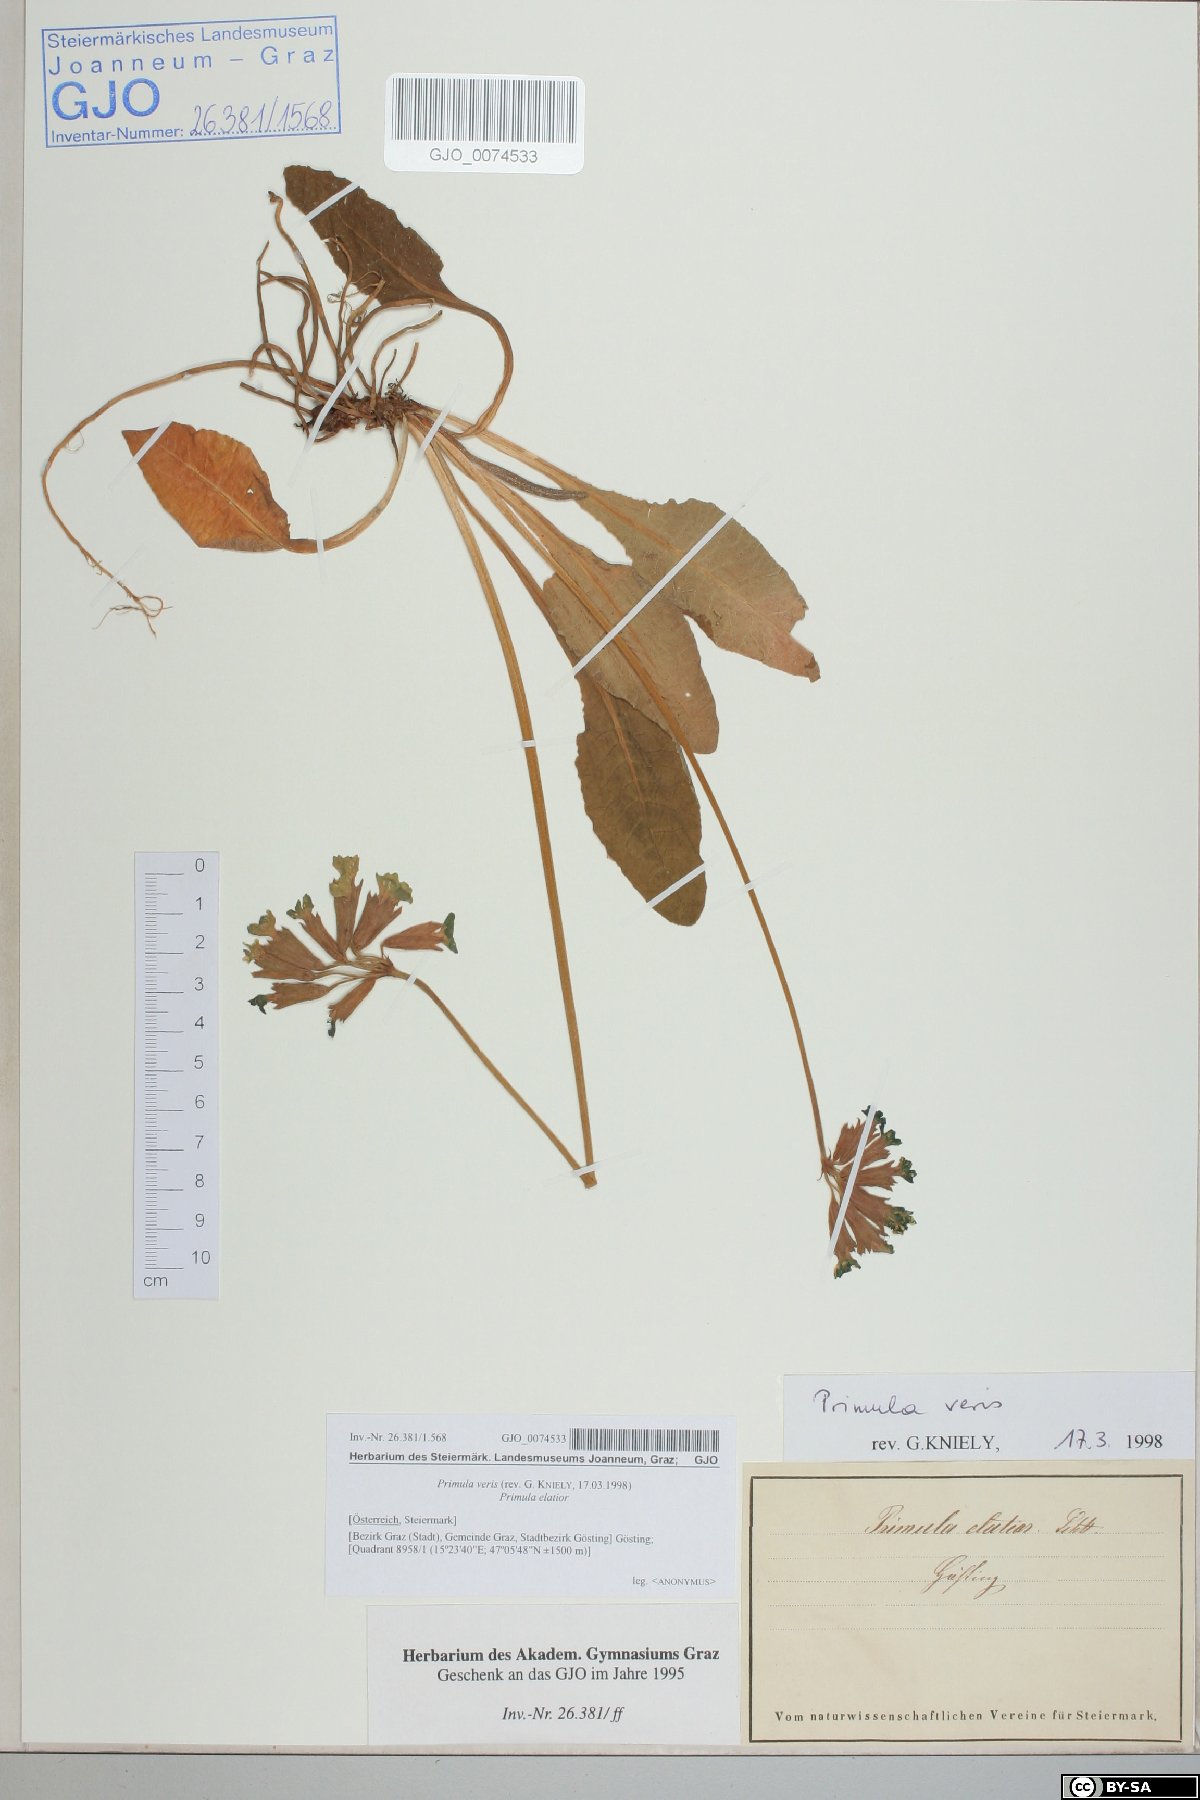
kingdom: Plantae
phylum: Tracheophyta
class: Magnoliopsida
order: Ericales
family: Primulaceae
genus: Primula
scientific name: Primula veris
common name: Cowslip
